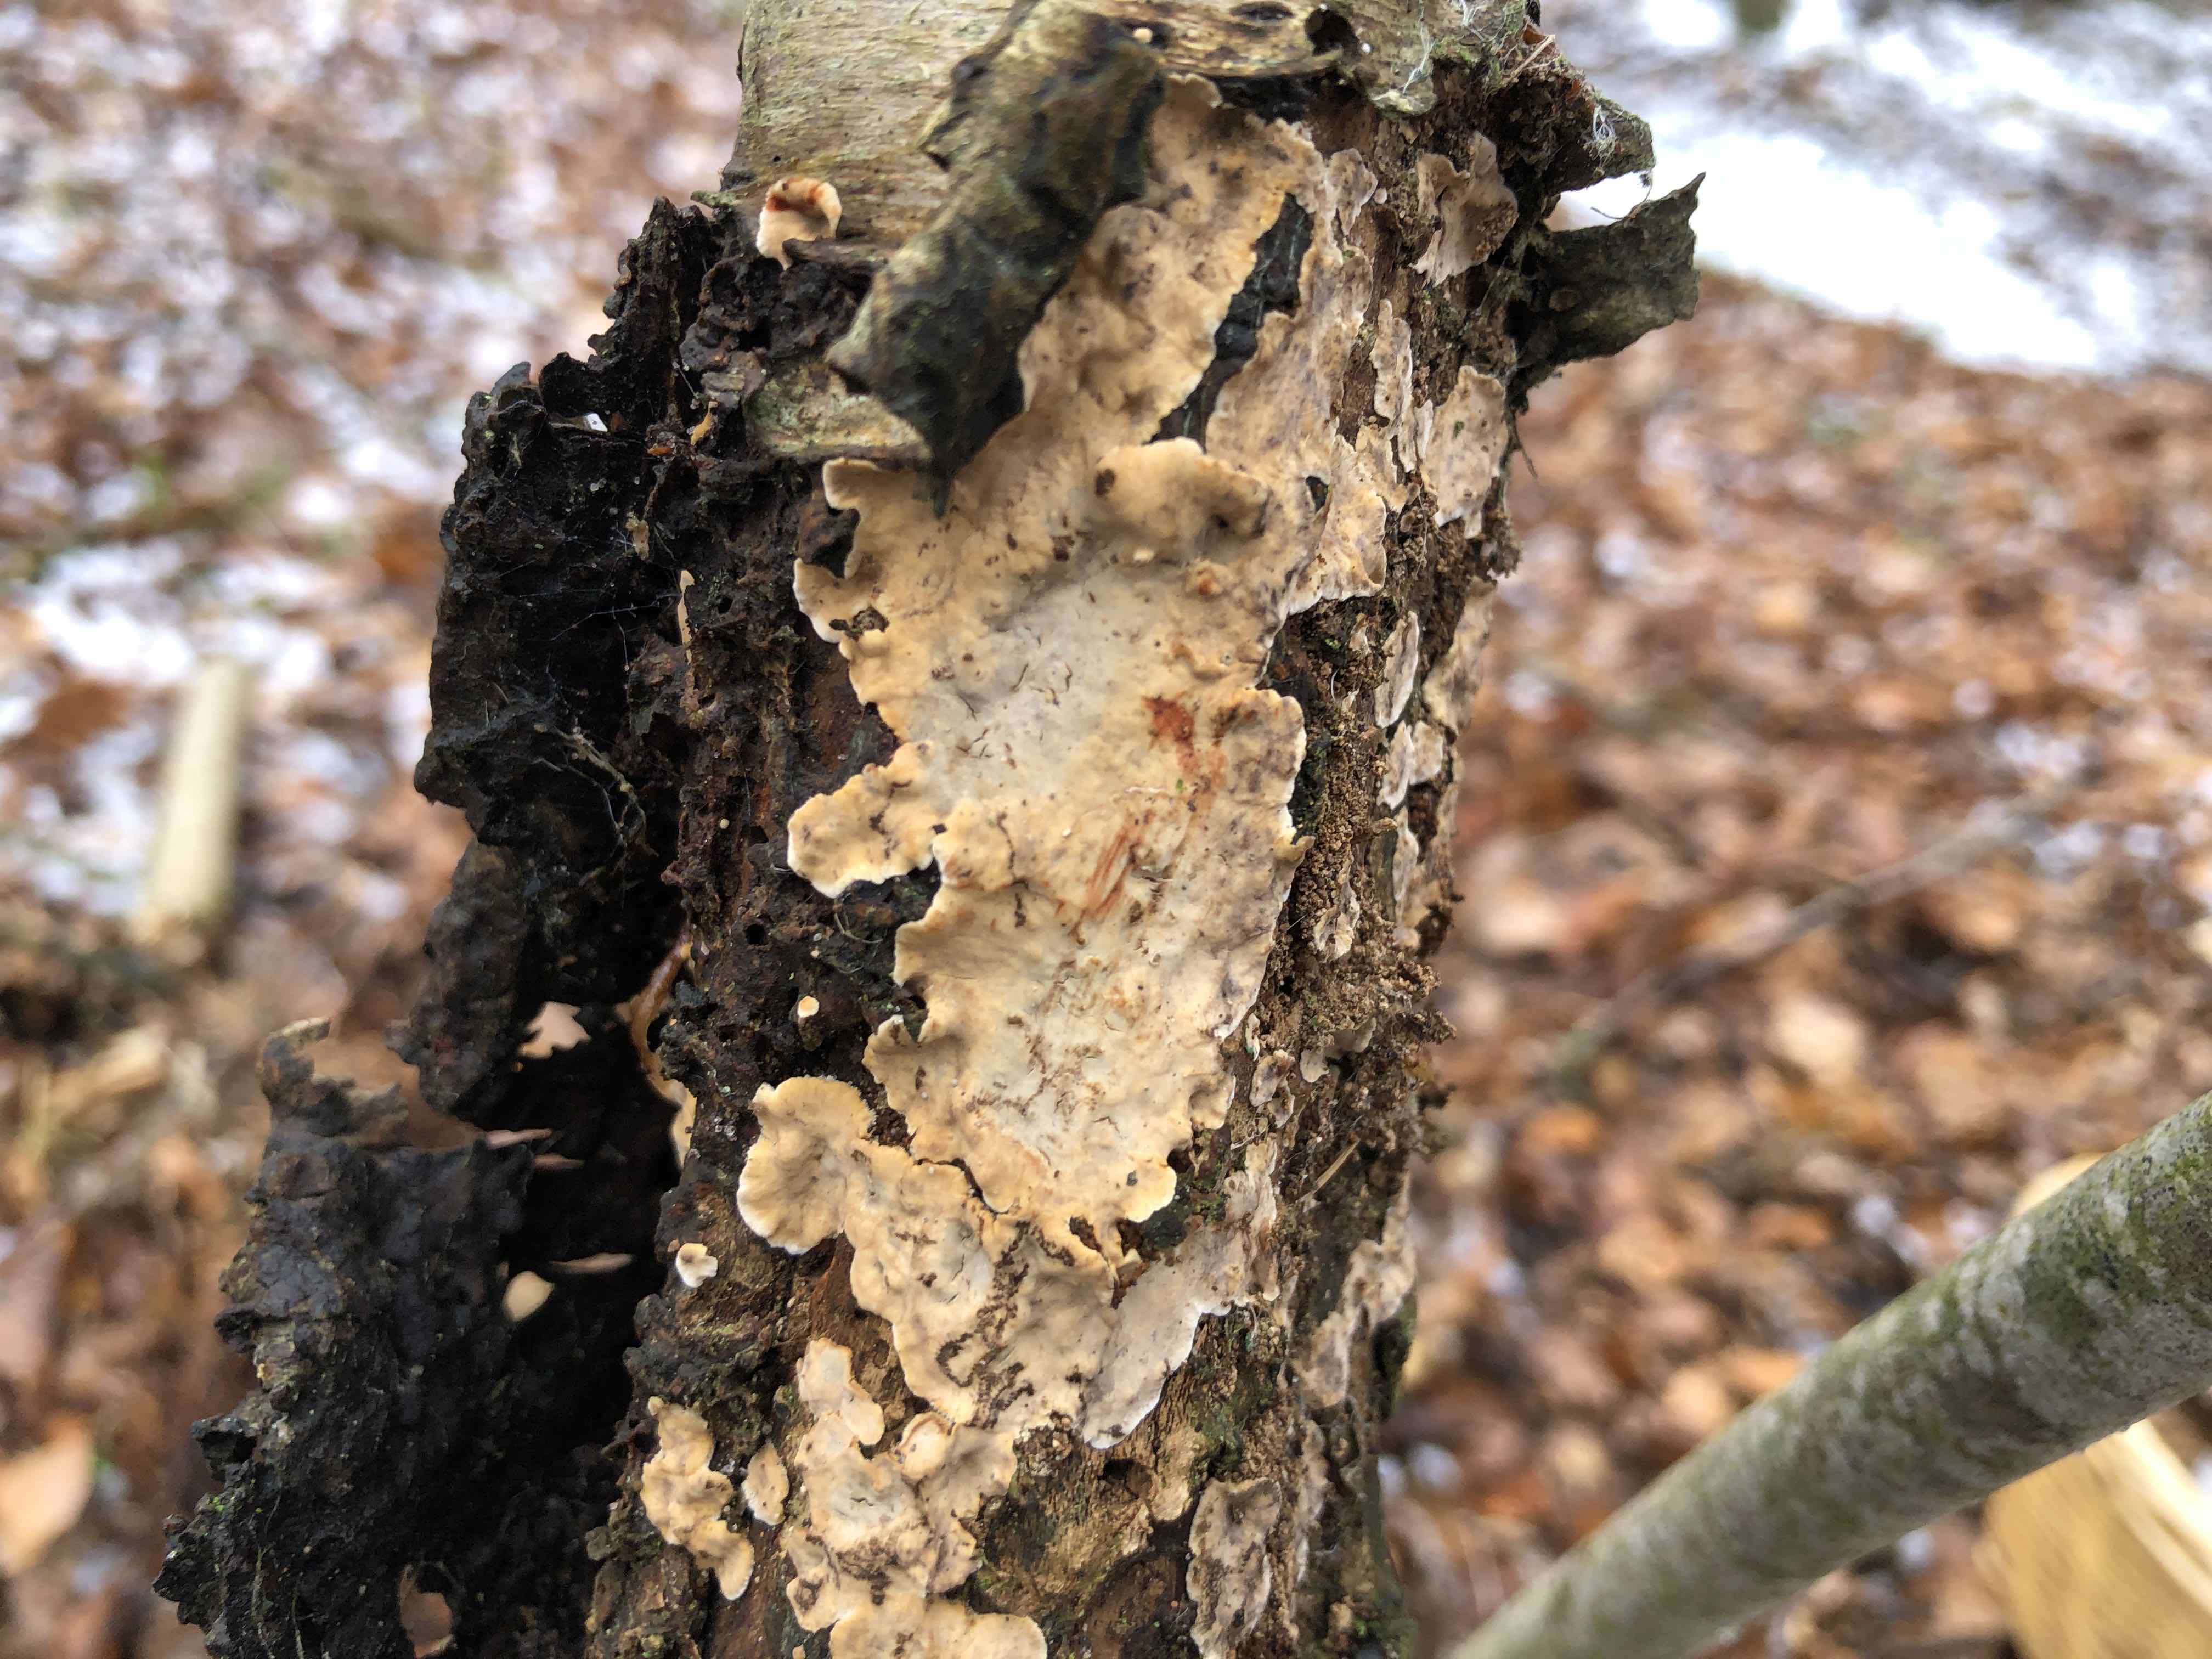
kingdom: Fungi
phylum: Basidiomycota
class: Agaricomycetes
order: Russulales
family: Stereaceae
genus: Stereum
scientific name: Stereum rugosum
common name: rynket lædersvamp
